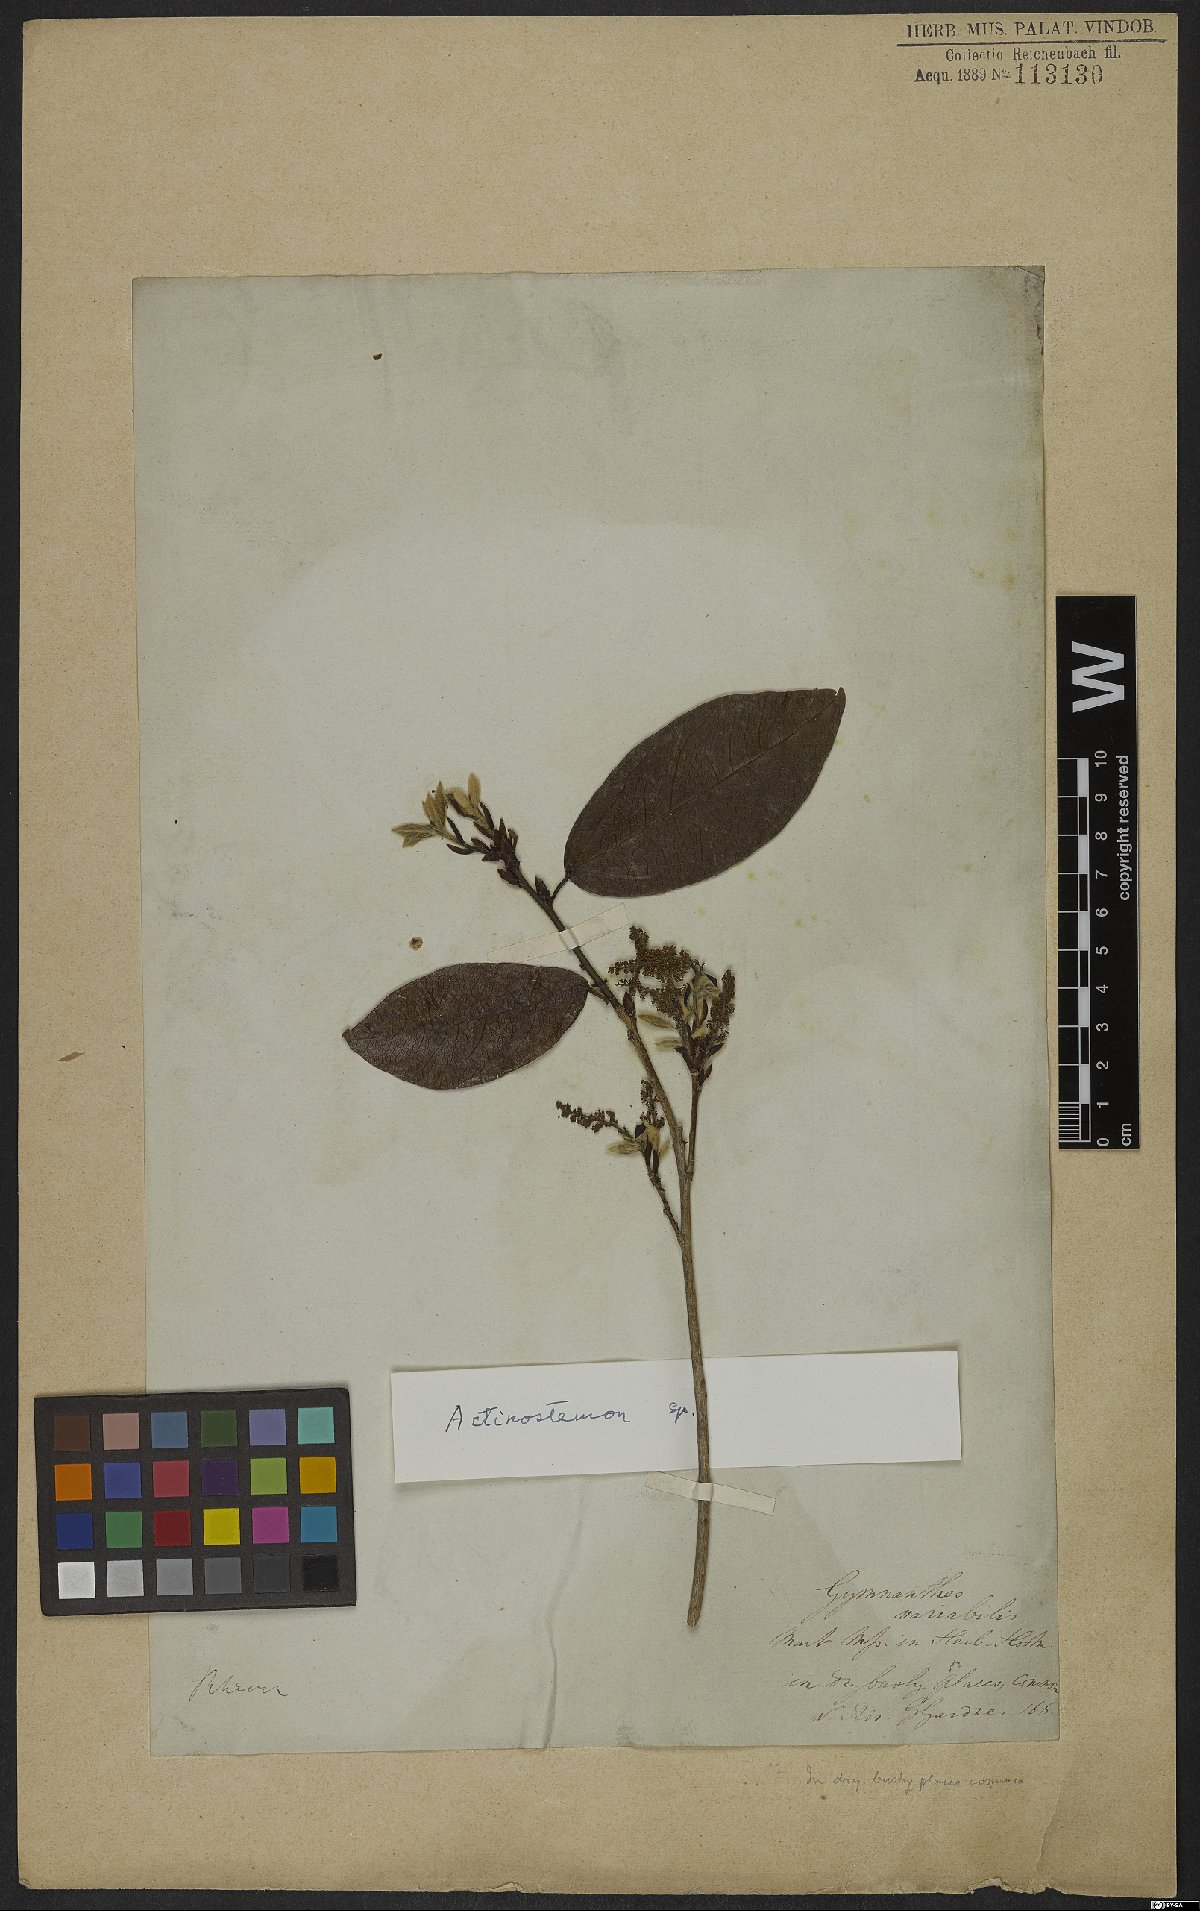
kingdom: Plantae
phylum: Tracheophyta
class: Magnoliopsida
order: Malpighiales
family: Euphorbiaceae
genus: Actinostemon
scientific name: Actinostemon
